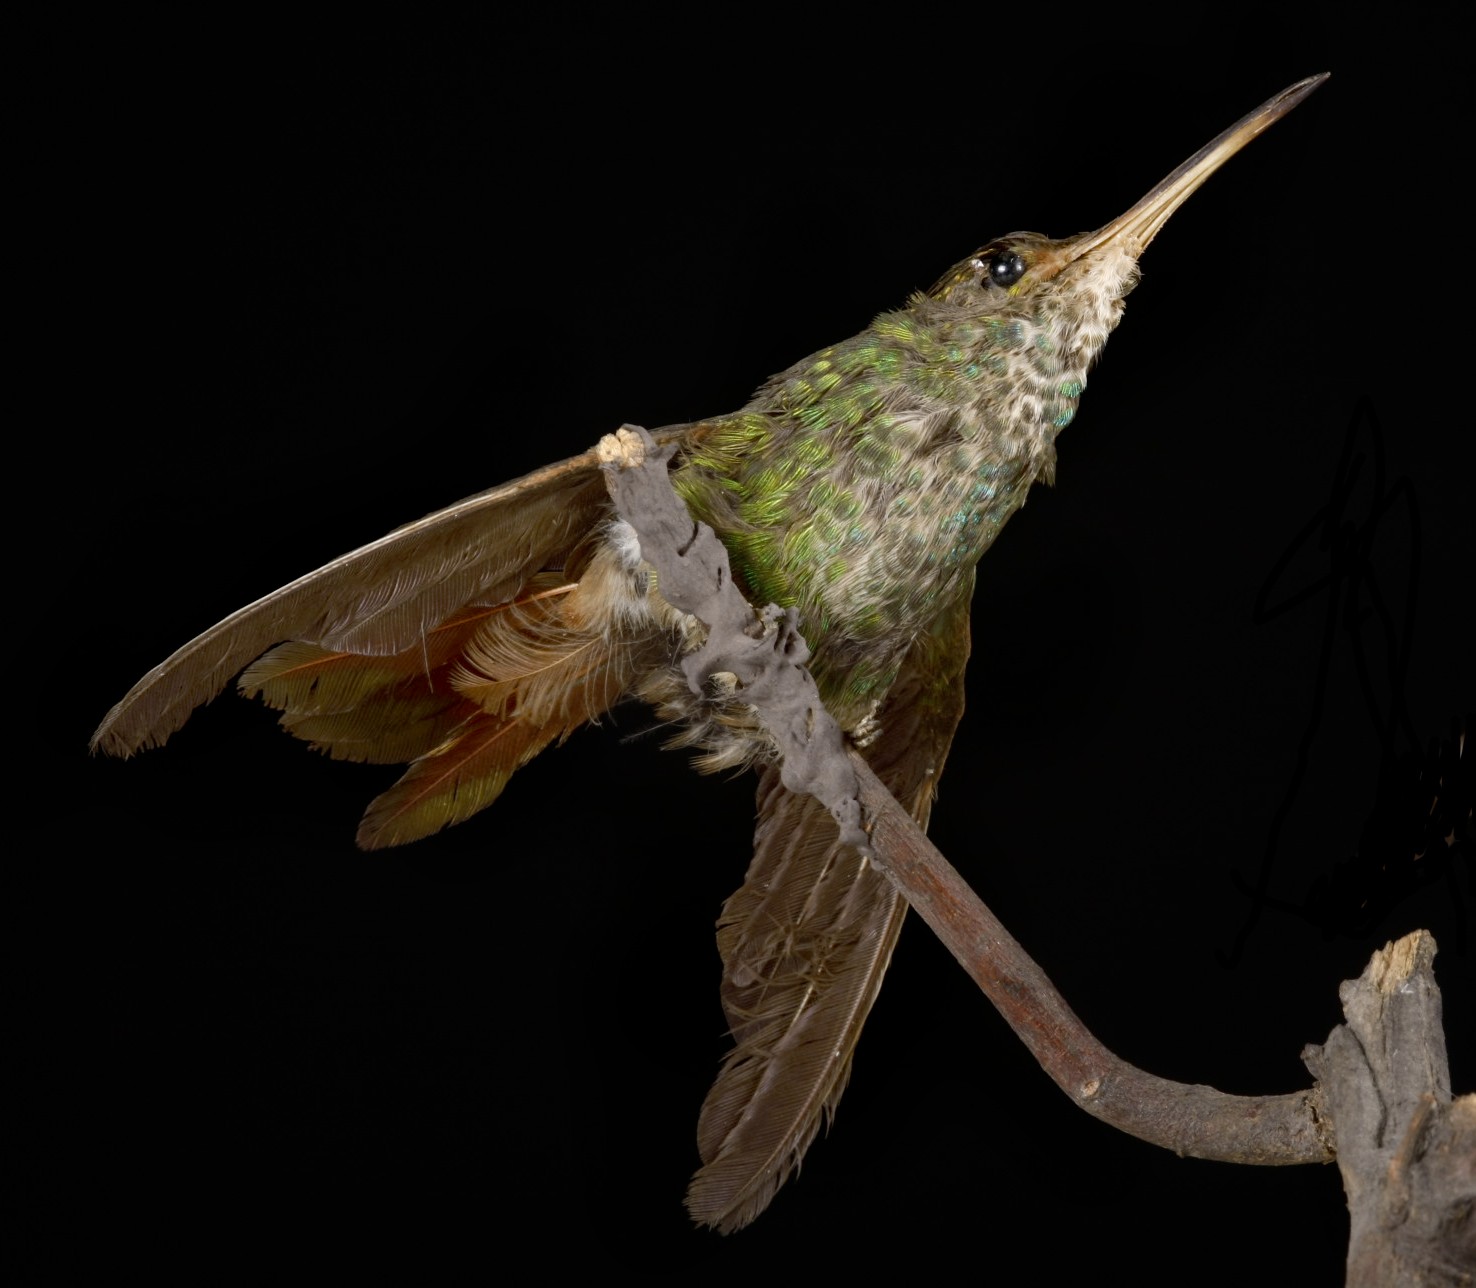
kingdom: Animalia
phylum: Chordata
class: Aves
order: Apodiformes
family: Trochilidae
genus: Amazilia
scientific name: Amazilia tzacatl
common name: Rufous-tailed hummingbird
